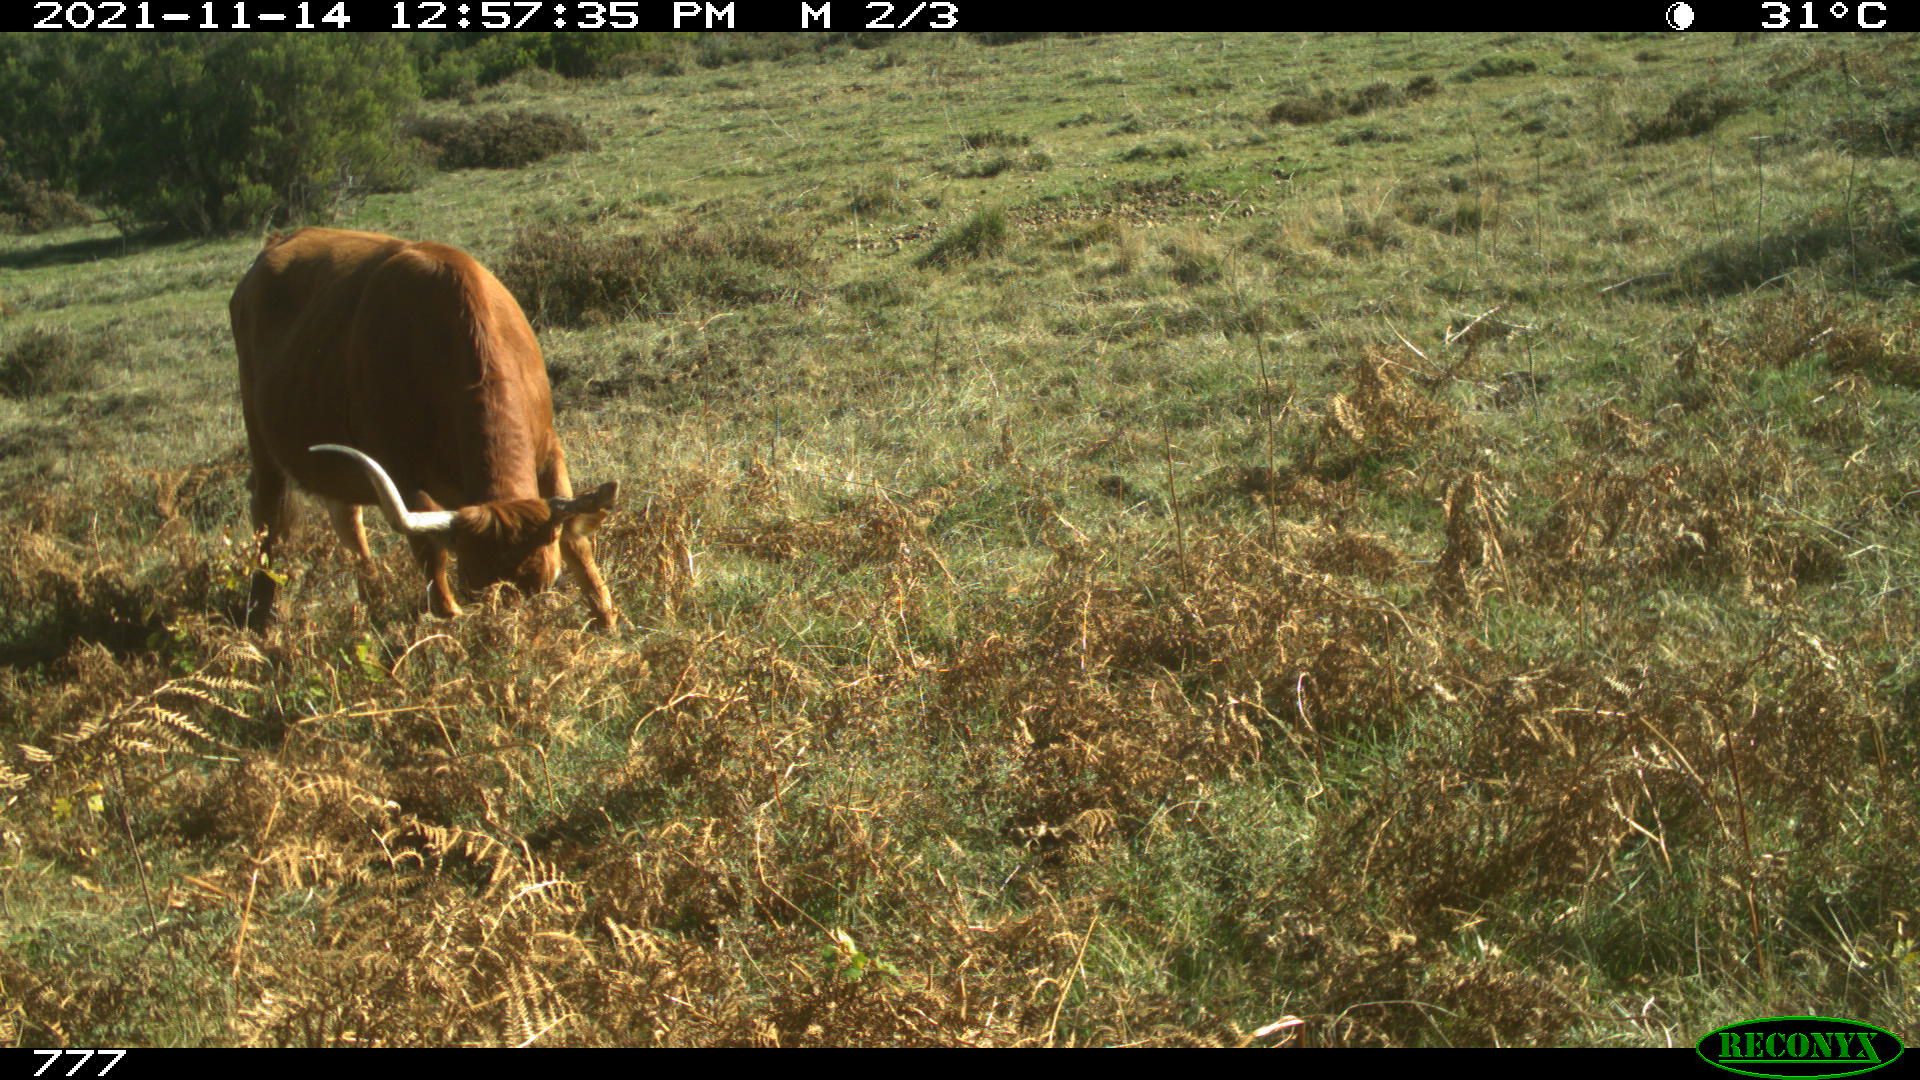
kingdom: Animalia
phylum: Chordata
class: Mammalia
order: Artiodactyla
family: Bovidae
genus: Bos
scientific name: Bos taurus
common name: Domesticated cattle
